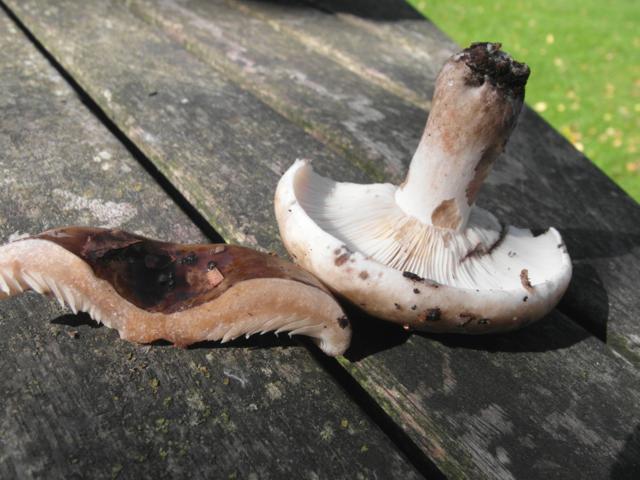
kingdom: Fungi
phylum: Basidiomycota
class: Agaricomycetes
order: Russulales
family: Russulaceae
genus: Russula
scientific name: Russula acrifolia
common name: skarpbladet skørhat
